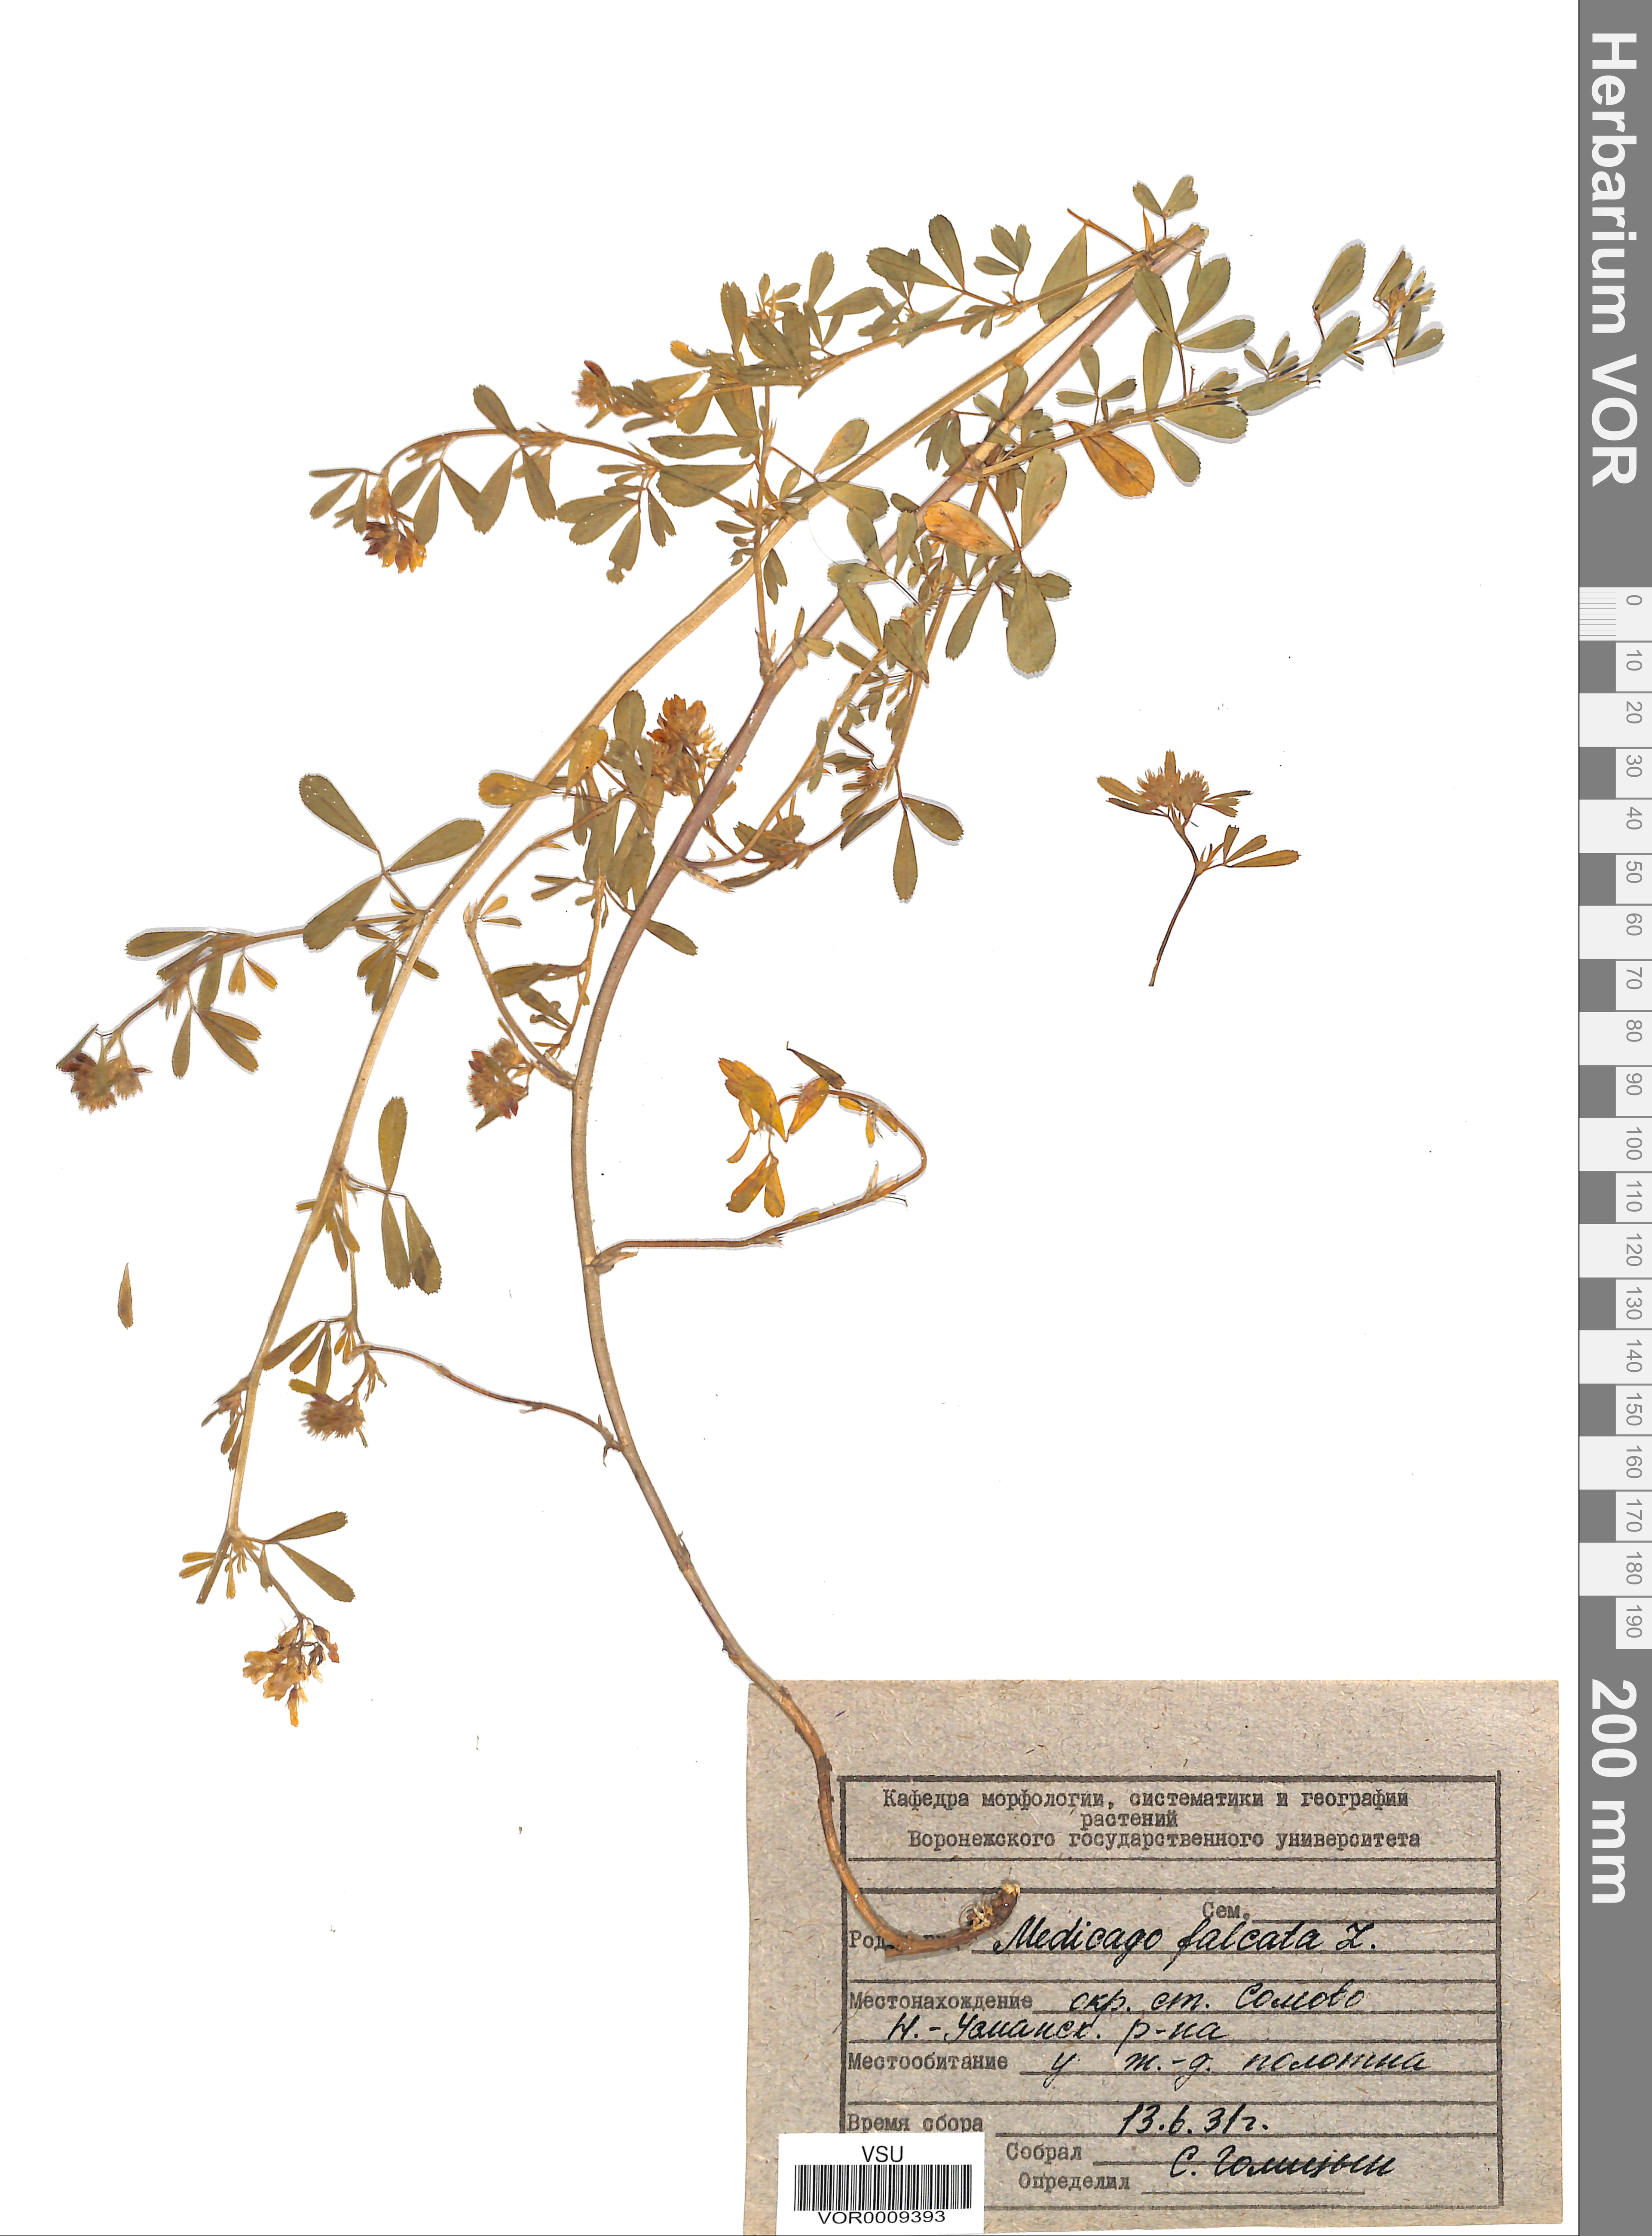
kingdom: Plantae
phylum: Tracheophyta
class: Magnoliopsida
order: Fabales
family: Fabaceae
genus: Medicago
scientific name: Medicago falcata
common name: Sickle medick
